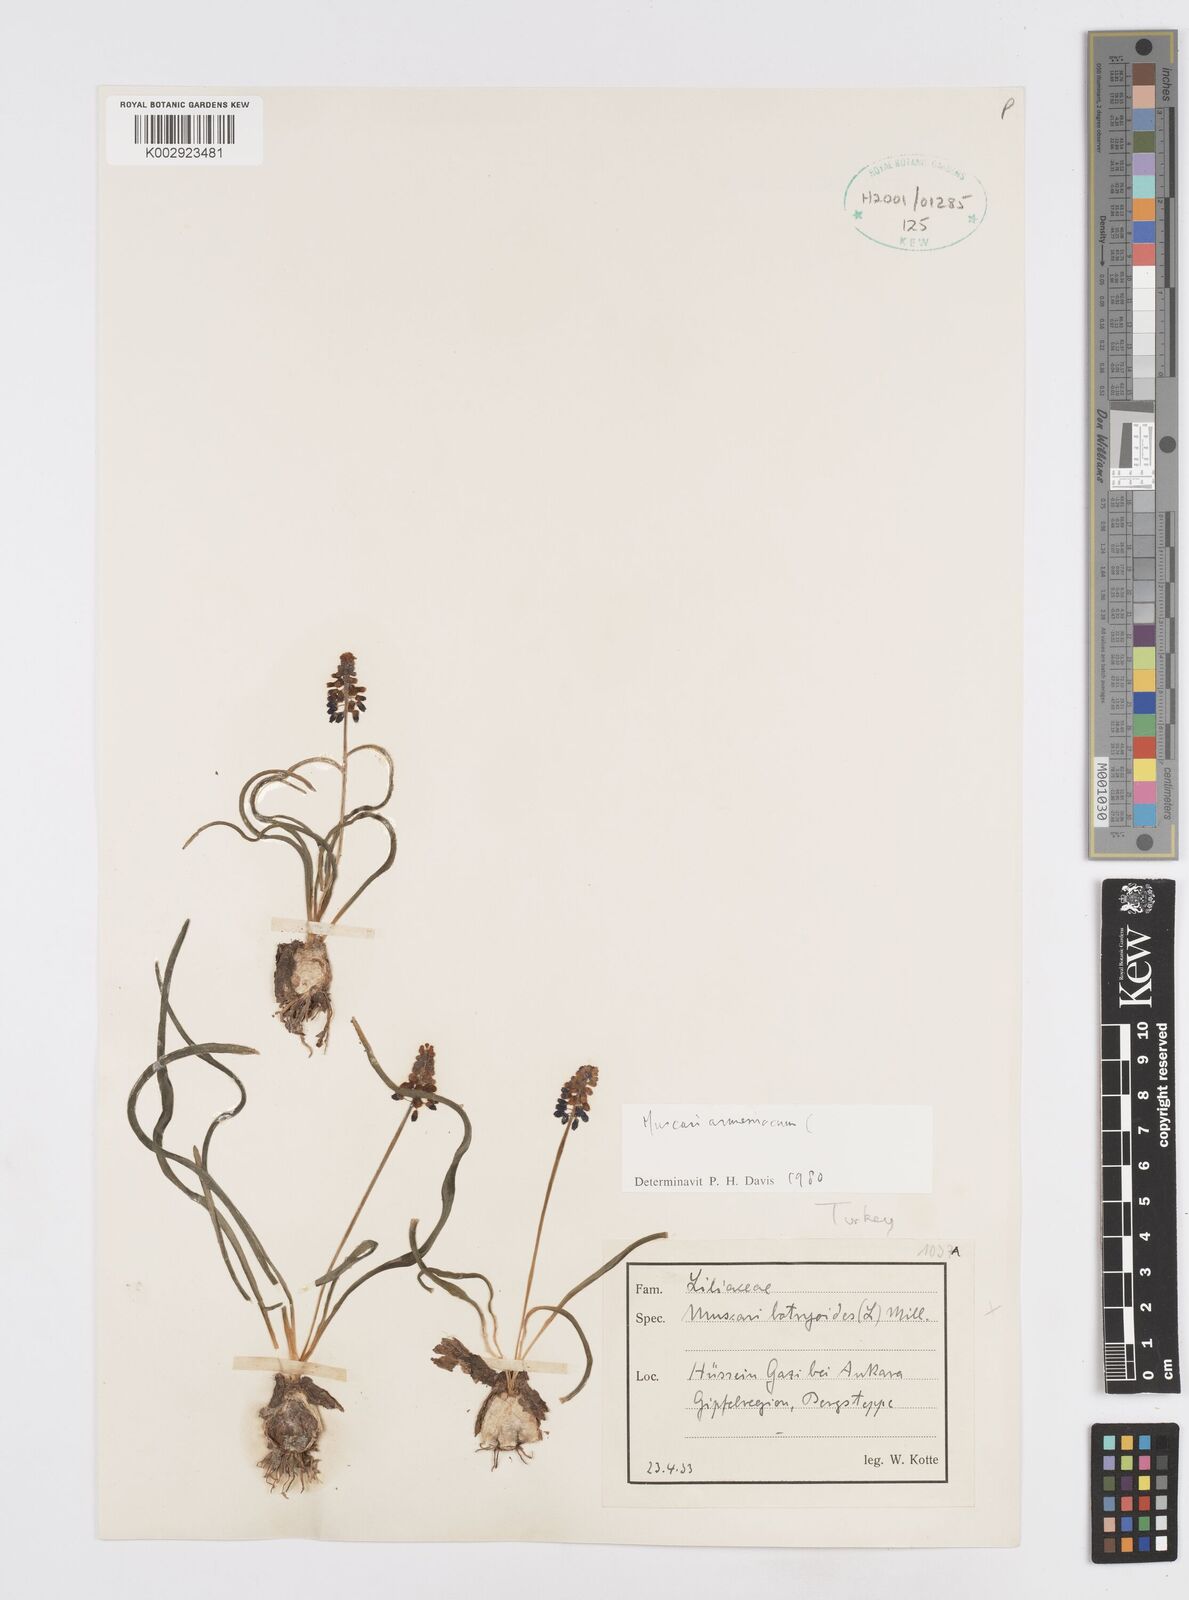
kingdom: Plantae
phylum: Tracheophyta
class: Liliopsida
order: Asparagales
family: Asparagaceae
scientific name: Asparagaceae
